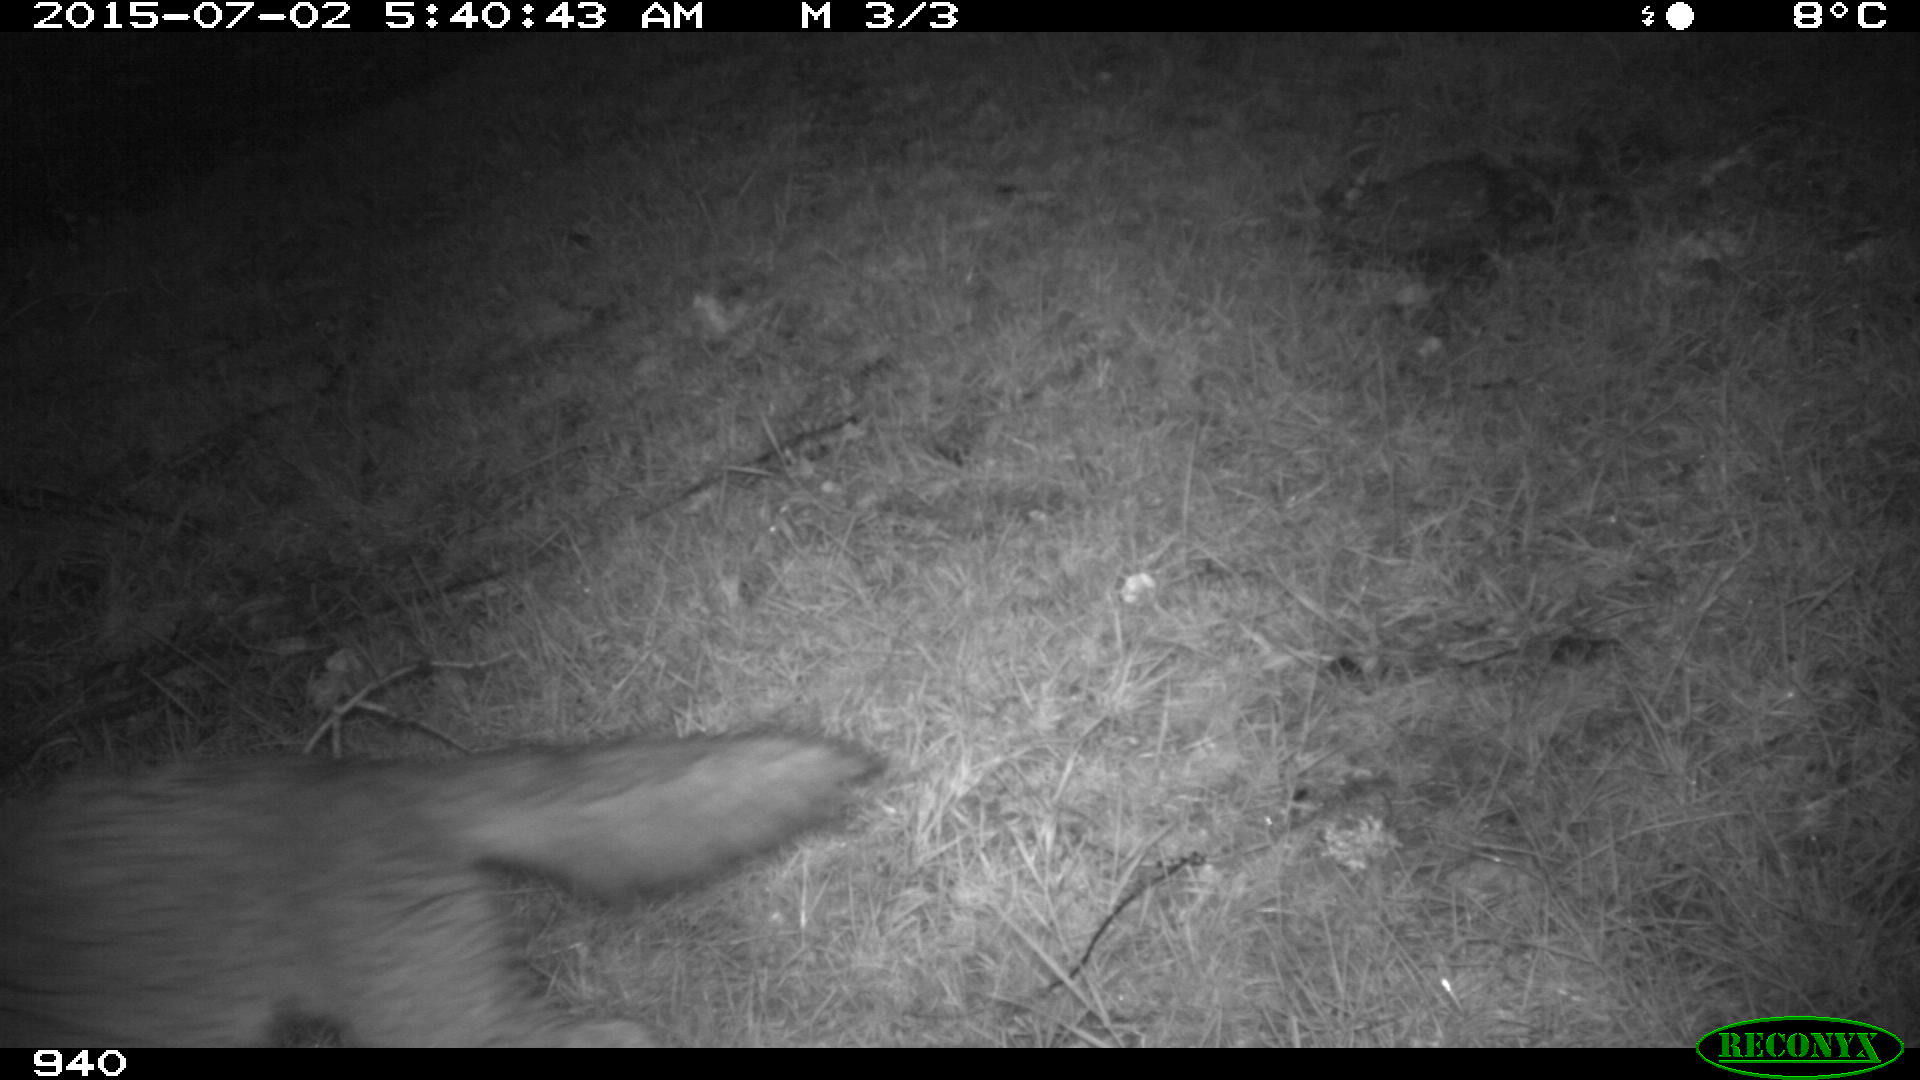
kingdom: Animalia
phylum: Chordata
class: Mammalia
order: Carnivora
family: Canidae
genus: Vulpes
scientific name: Vulpes vulpes
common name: Red fox
